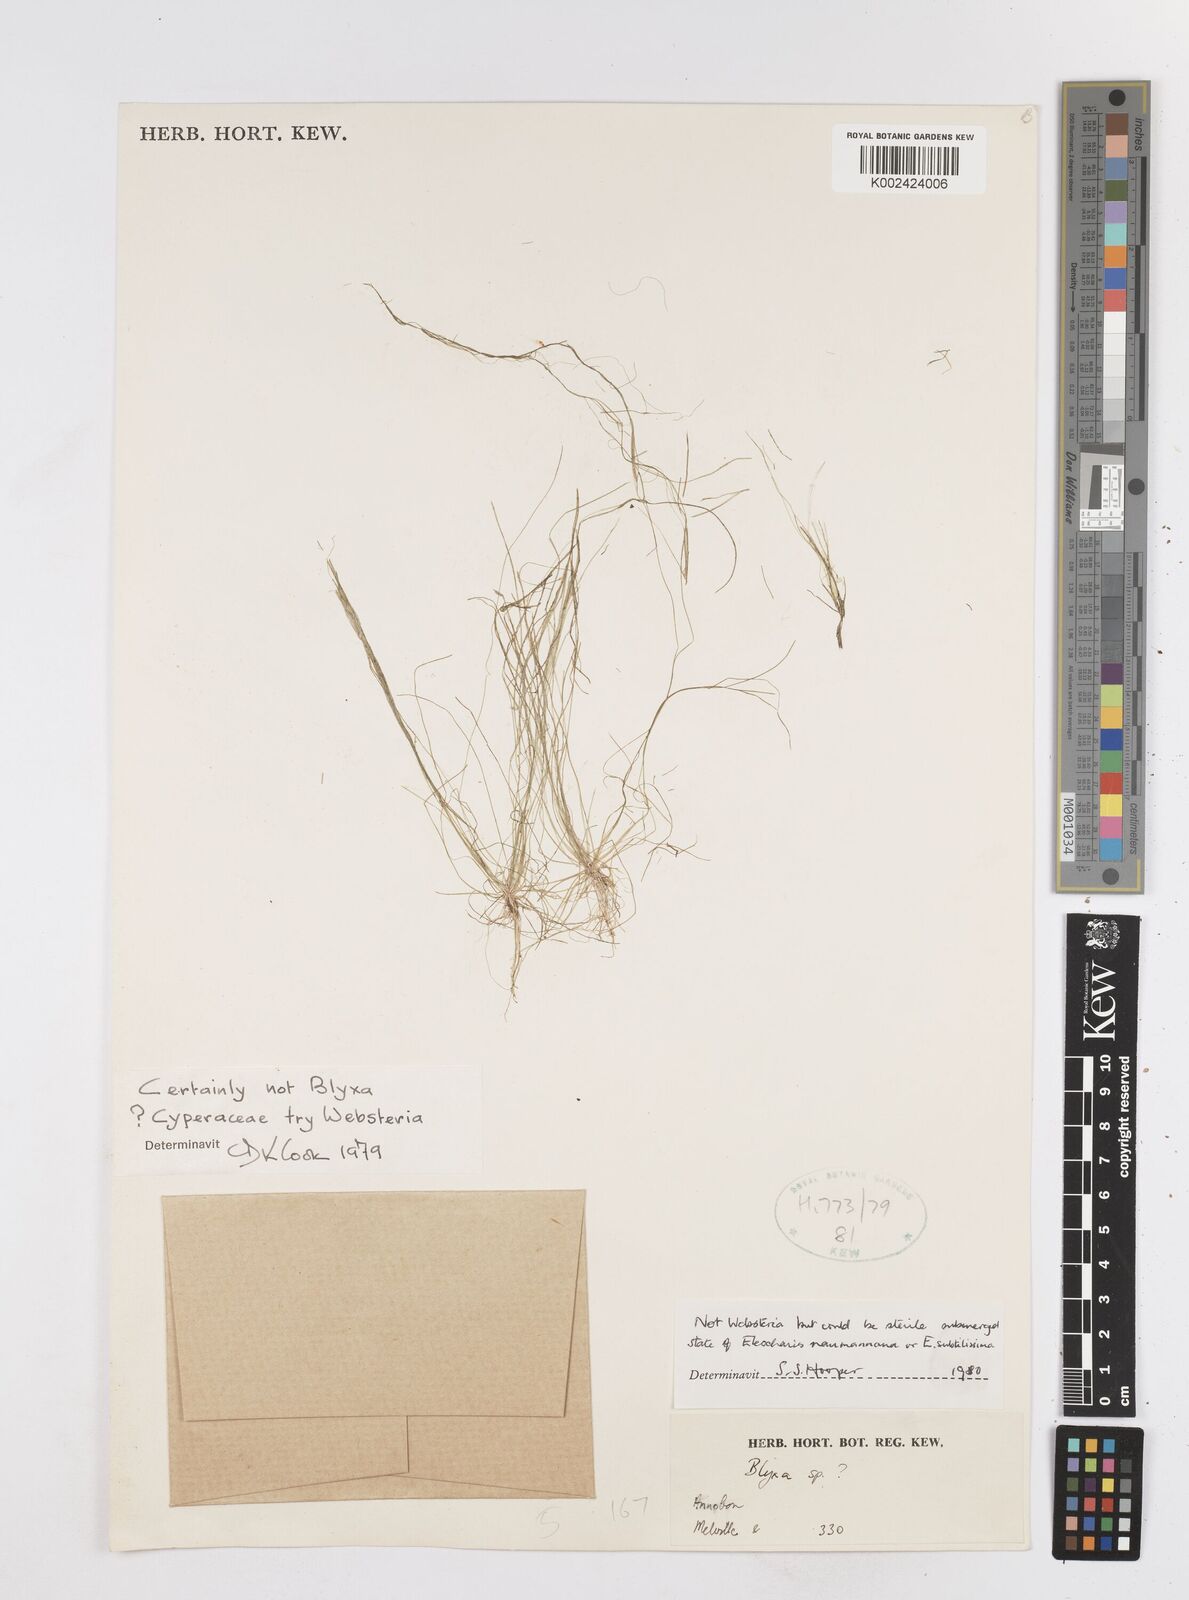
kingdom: Plantae
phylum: Tracheophyta
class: Liliopsida
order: Poales
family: Cyperaceae
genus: Eleocharis
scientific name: Eleocharis
